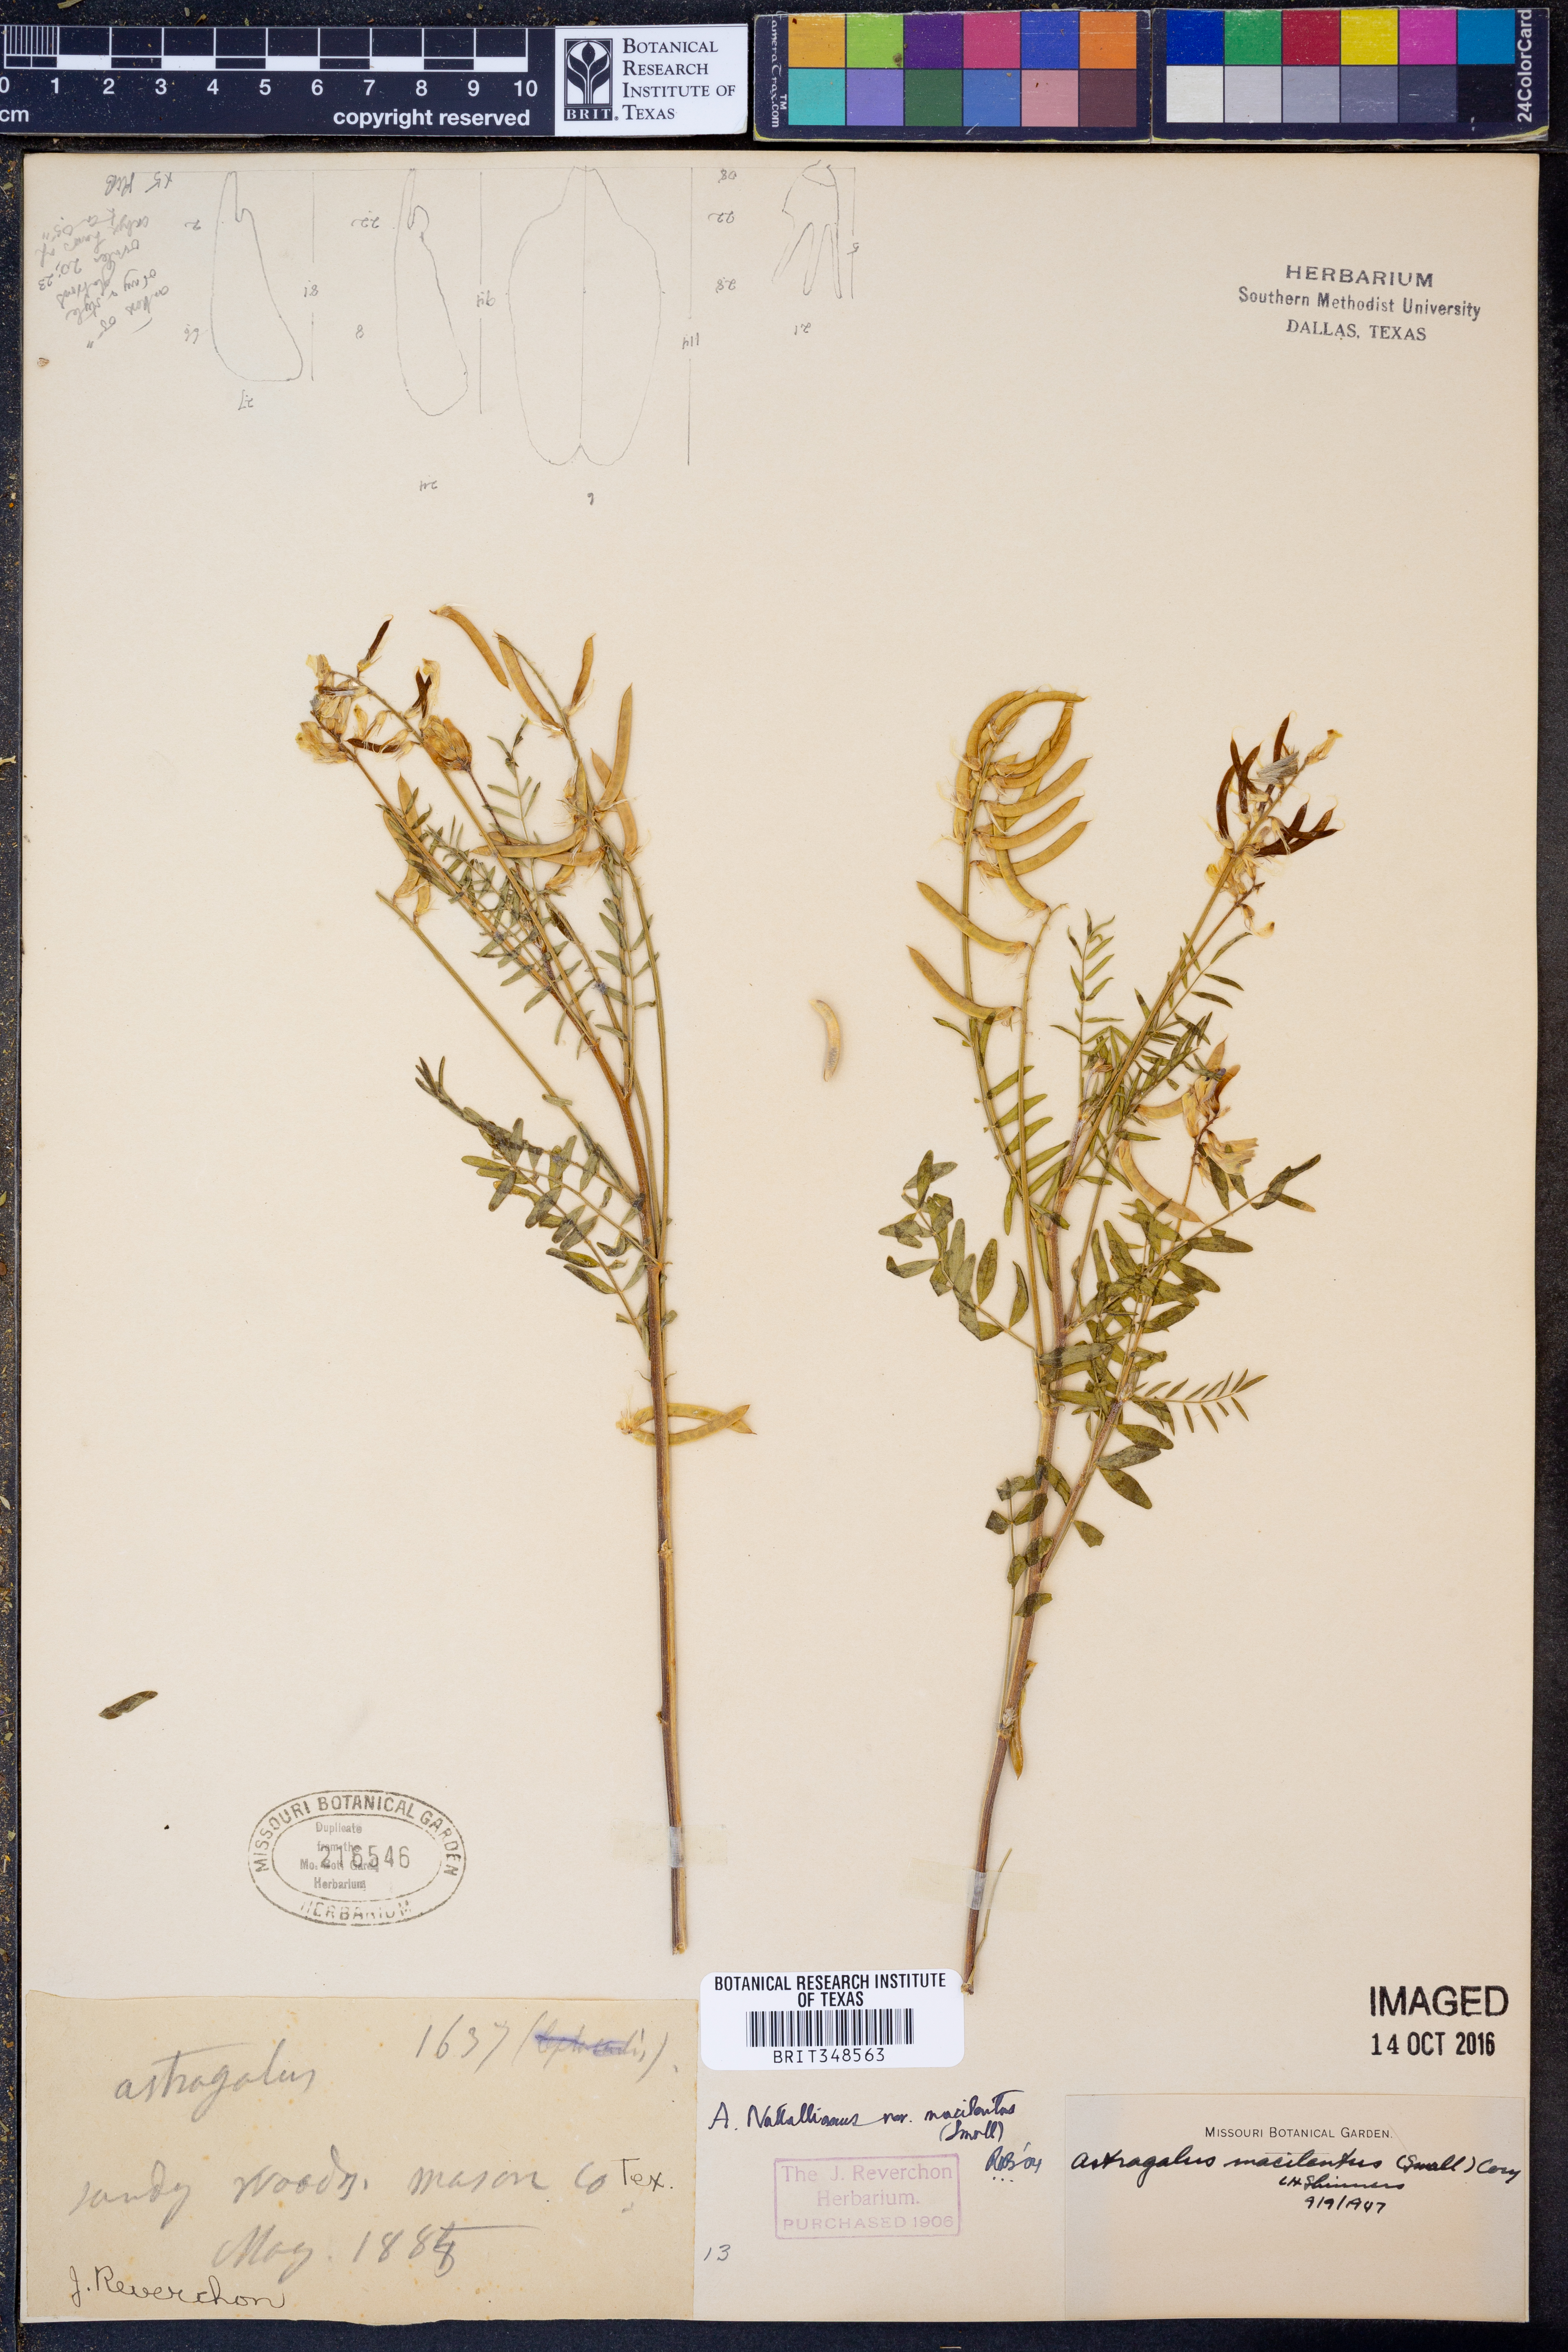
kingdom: Plantae
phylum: Tracheophyta
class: Magnoliopsida
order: Fabales
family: Fabaceae
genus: Astragalus
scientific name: Astragalus nuttallianus
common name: Smallflowered milkvetch
